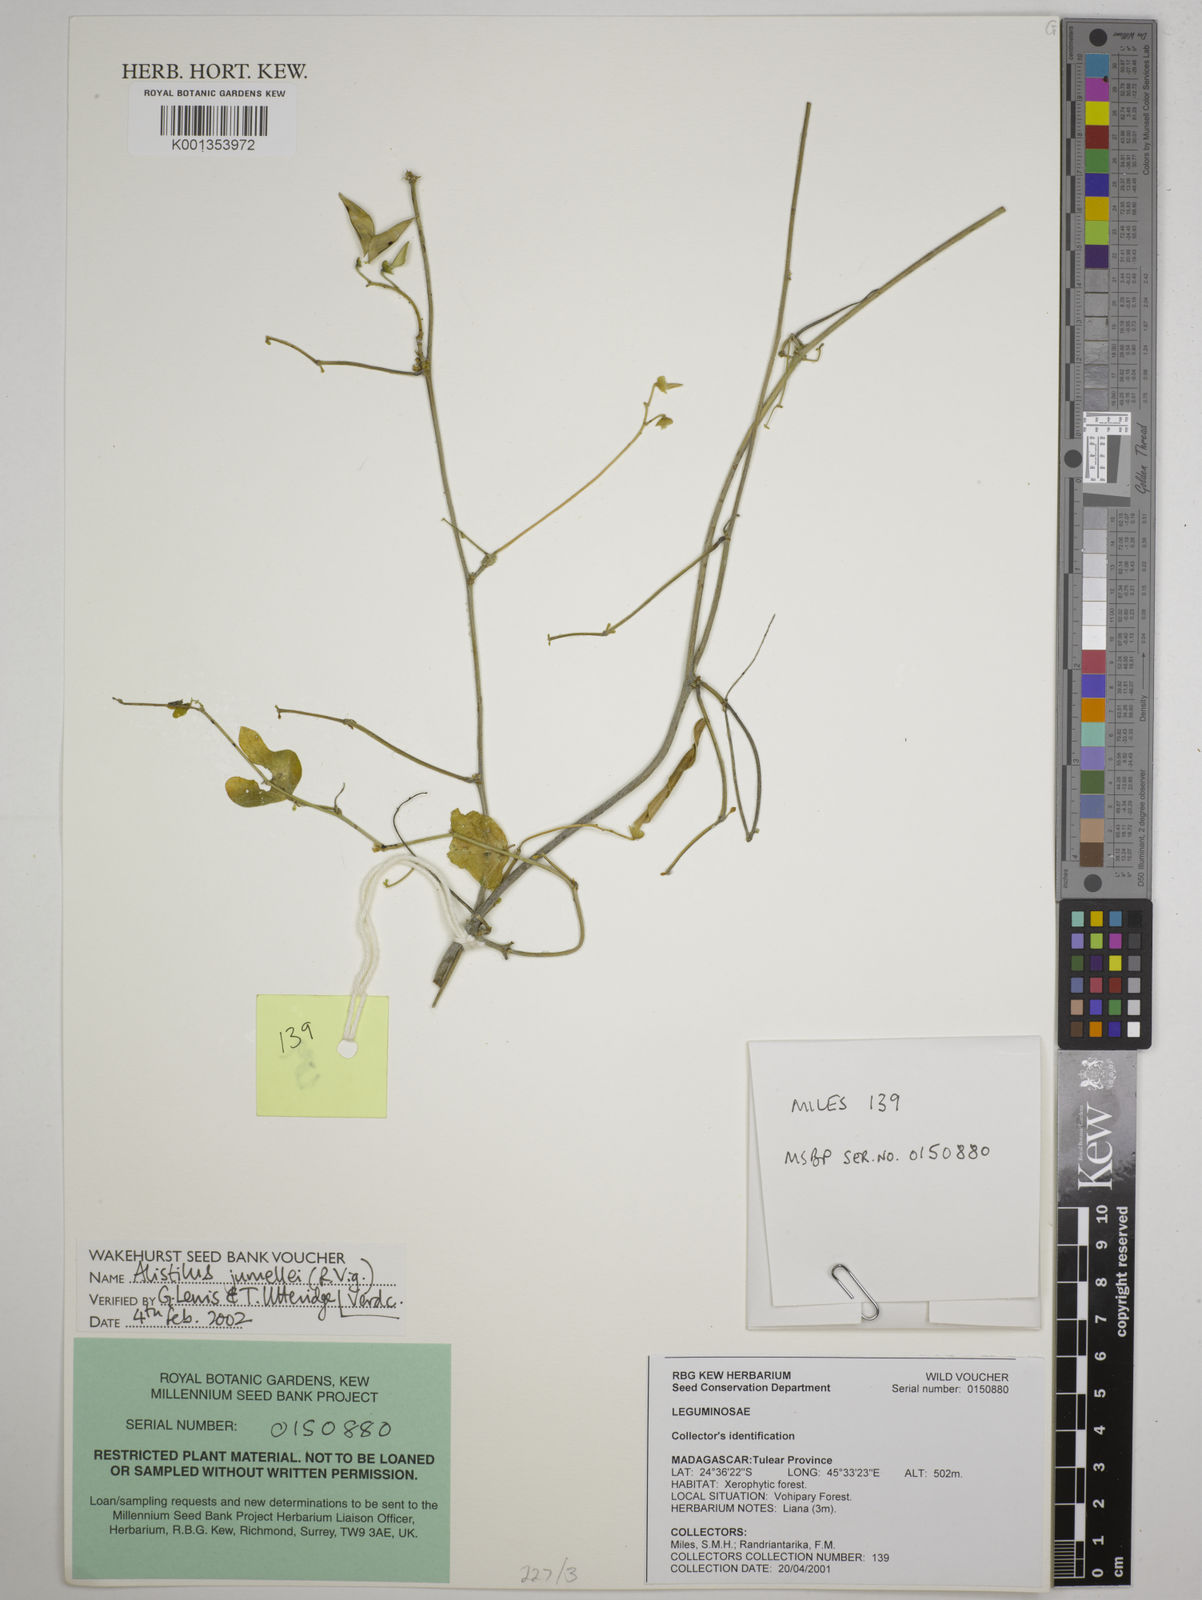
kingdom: Plantae
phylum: Tracheophyta
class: Magnoliopsida
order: Fabales
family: Fabaceae
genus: Alistilus
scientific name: Alistilus jumellei
